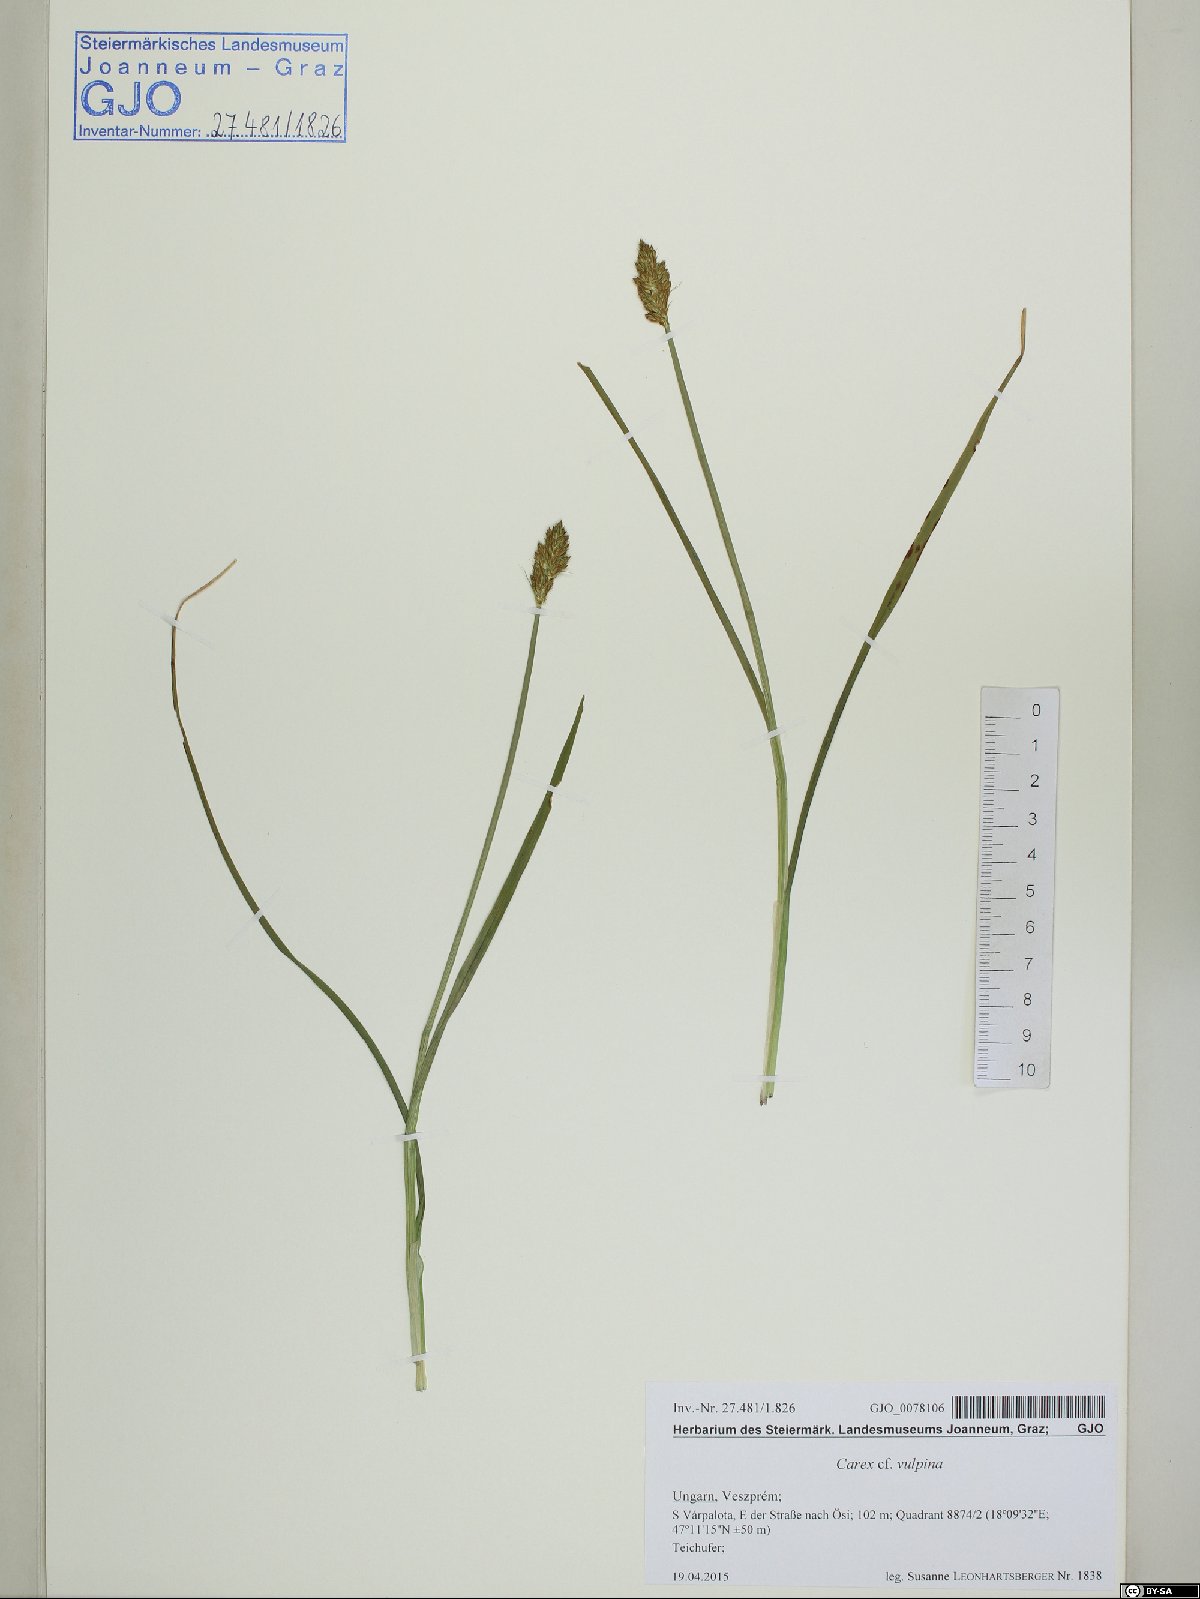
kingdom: Plantae
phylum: Tracheophyta
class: Liliopsida
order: Poales
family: Cyperaceae
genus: Carex
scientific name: Carex vulpina
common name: True fox-sedge
